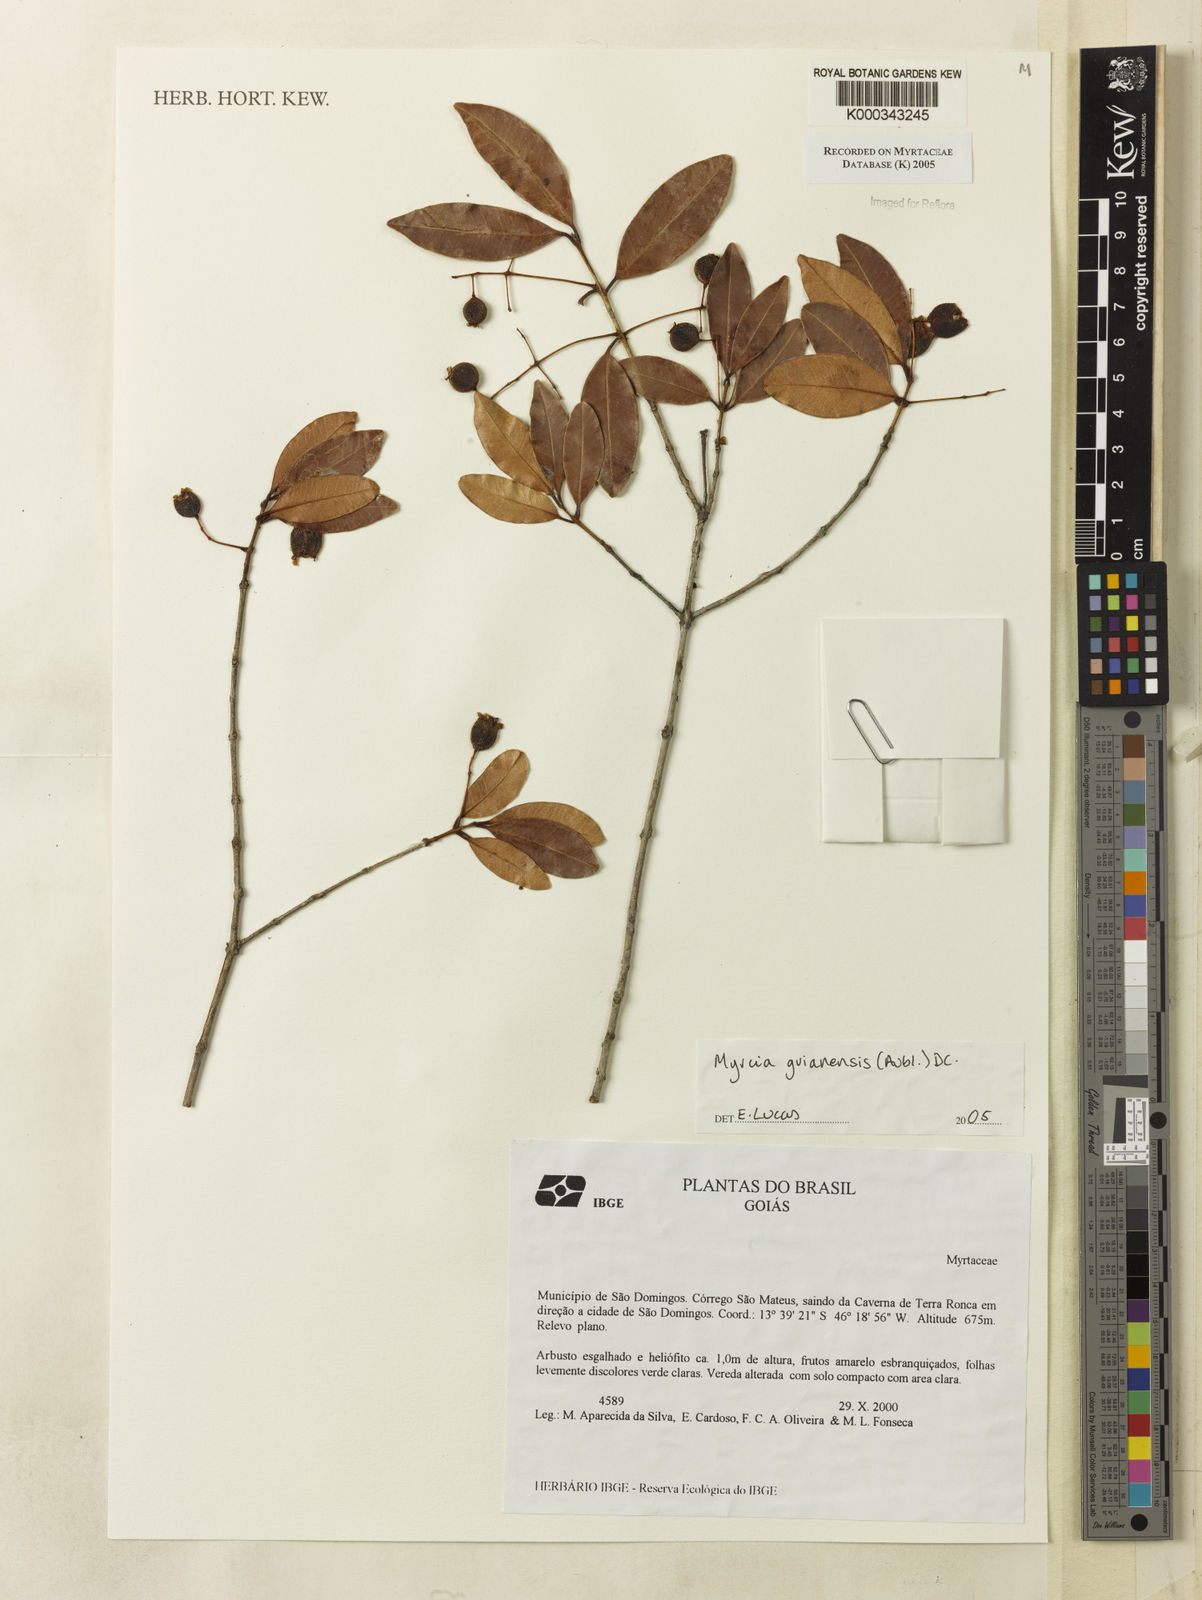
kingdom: Plantae
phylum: Tracheophyta
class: Magnoliopsida
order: Myrtales
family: Myrtaceae
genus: Myrcia
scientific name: Myrcia guianensis
